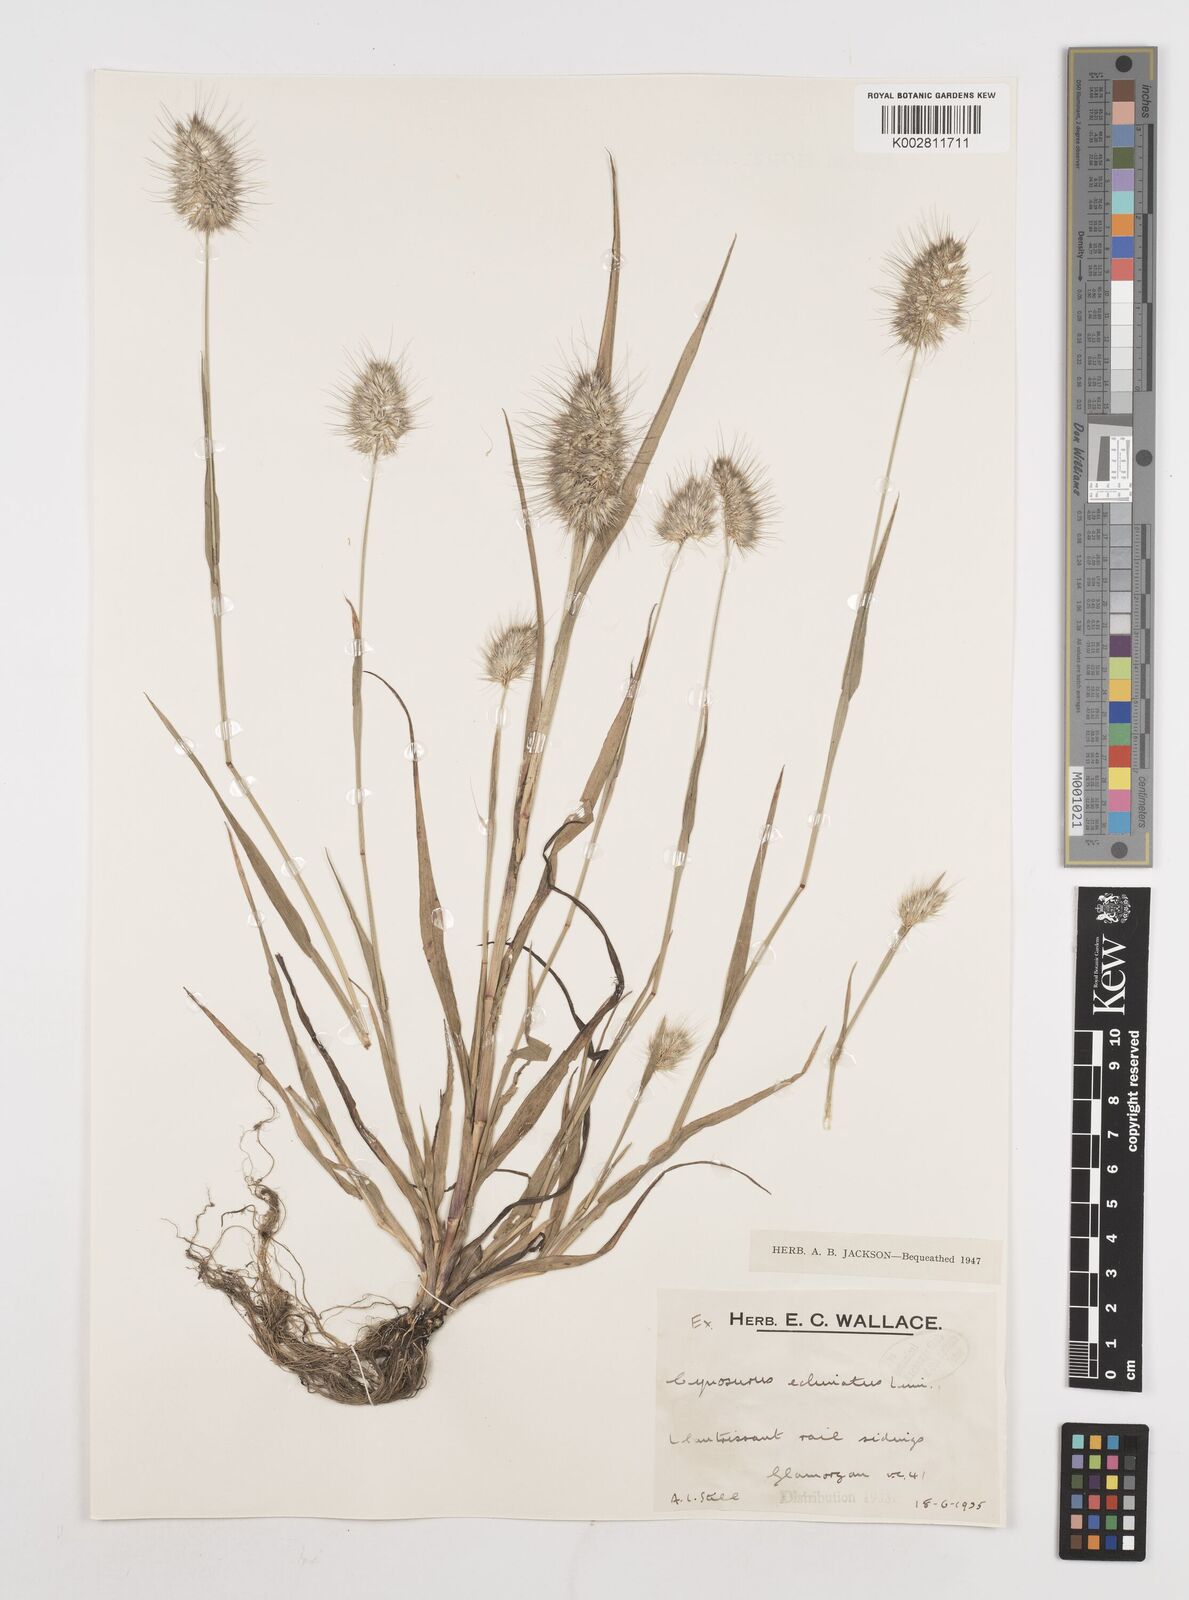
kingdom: Plantae
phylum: Tracheophyta
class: Liliopsida
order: Poales
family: Poaceae
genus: Cynosurus
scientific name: Cynosurus echinatus
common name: Rough dog's-tail
